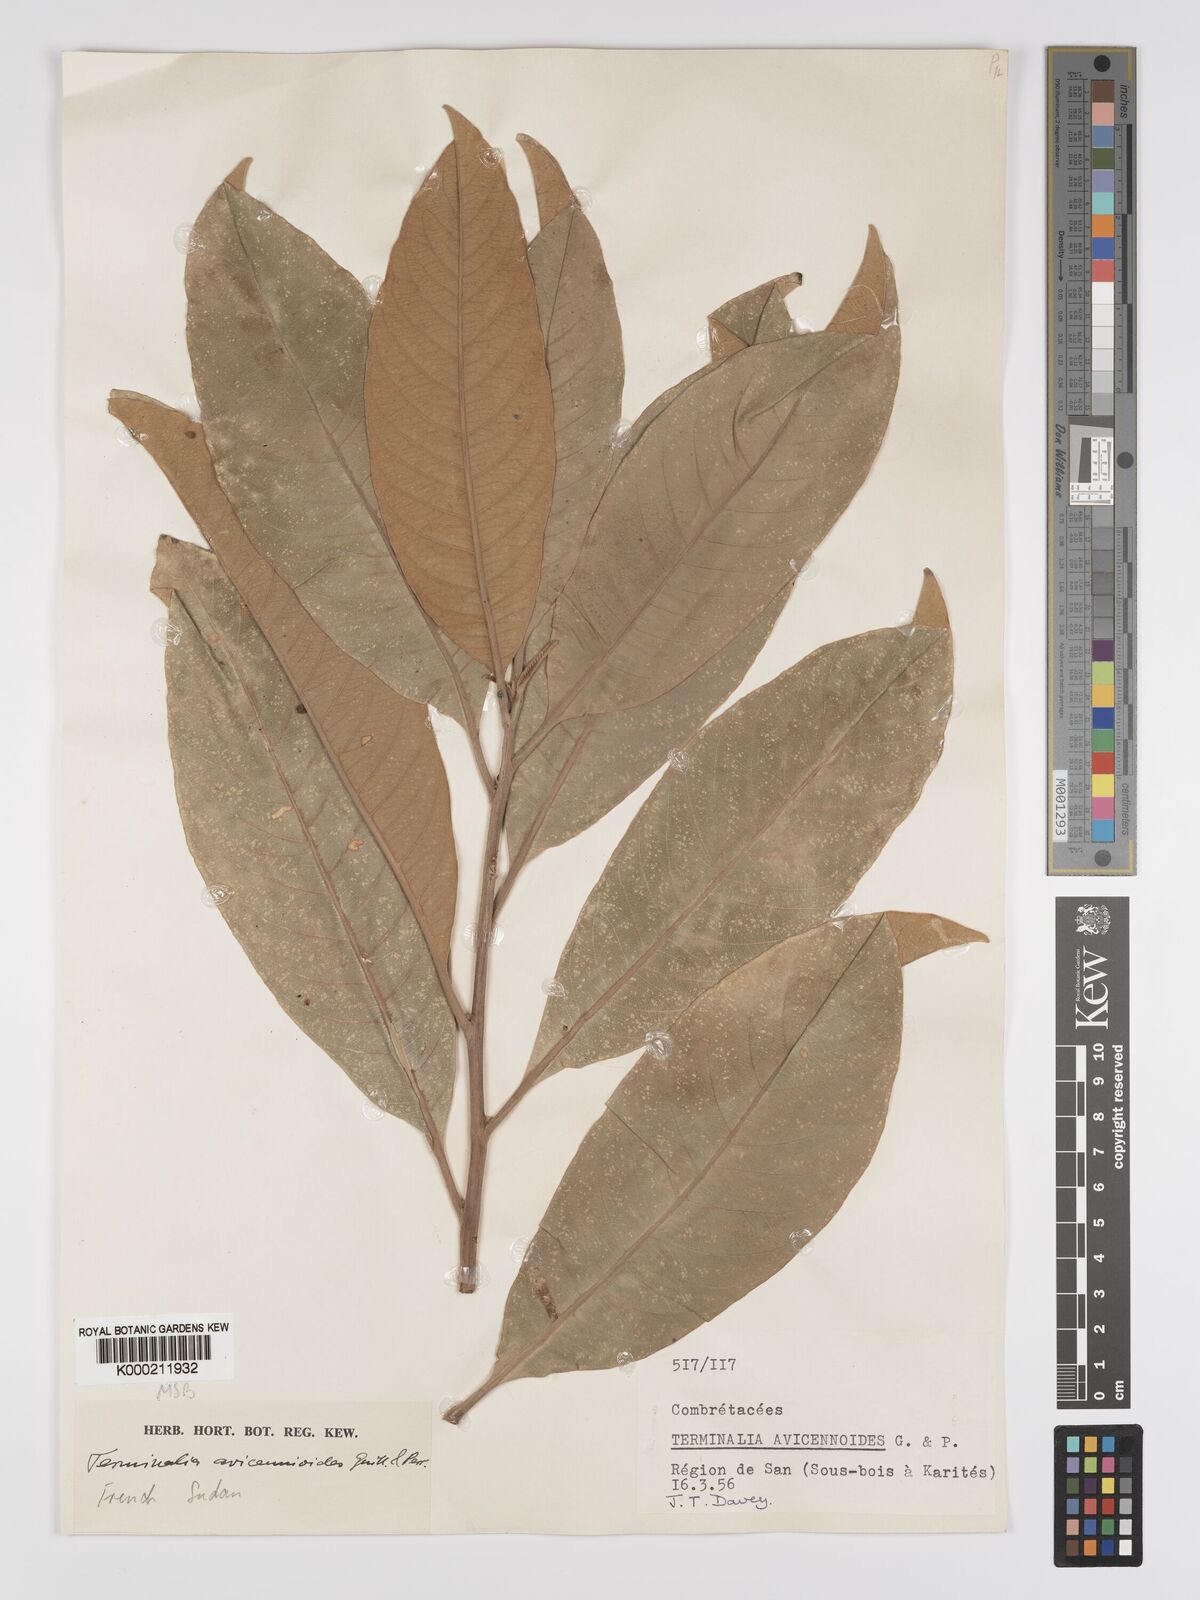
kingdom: Plantae
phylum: Tracheophyta
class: Magnoliopsida
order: Myrtales
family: Combretaceae
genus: Terminalia
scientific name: Terminalia avicennioides
